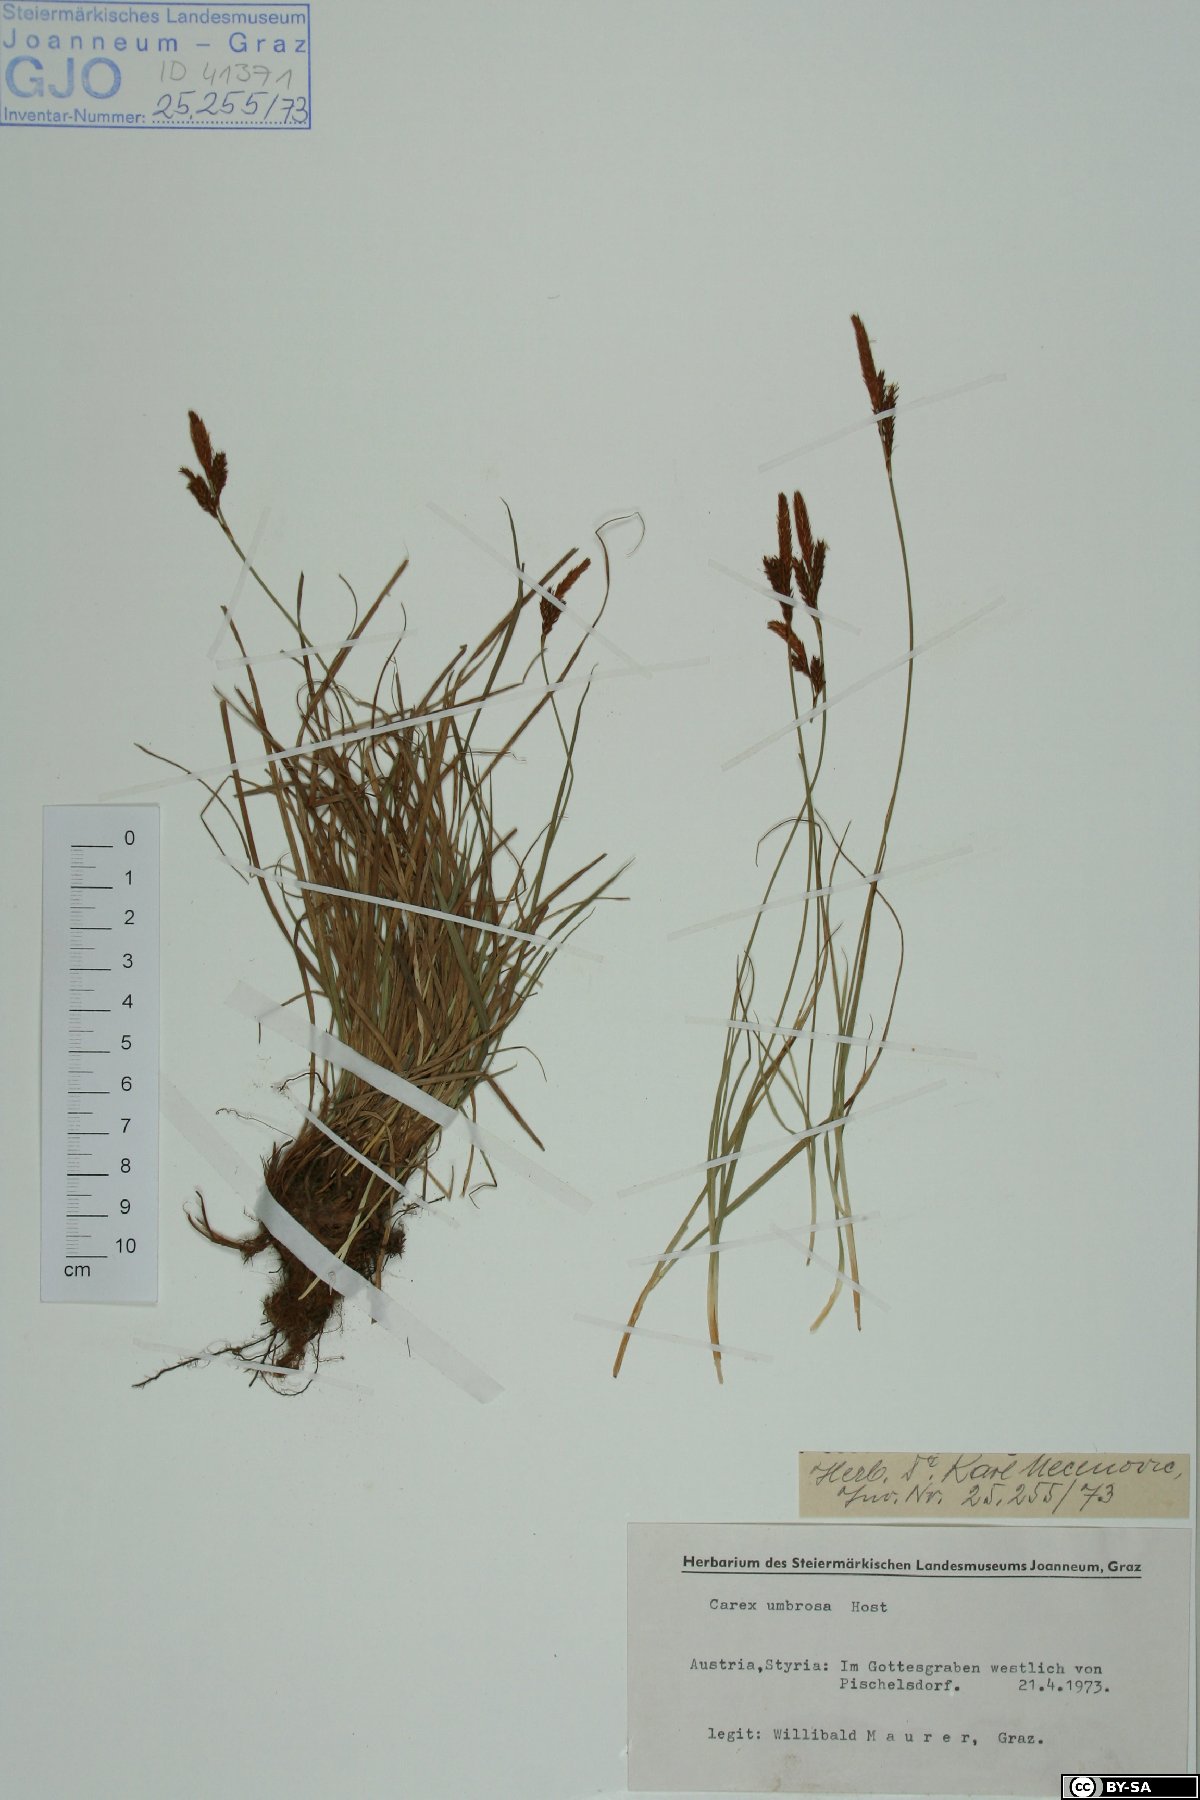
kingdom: Plantae
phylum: Tracheophyta
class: Liliopsida
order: Poales
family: Cyperaceae
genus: Carex
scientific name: Carex umbrosa
